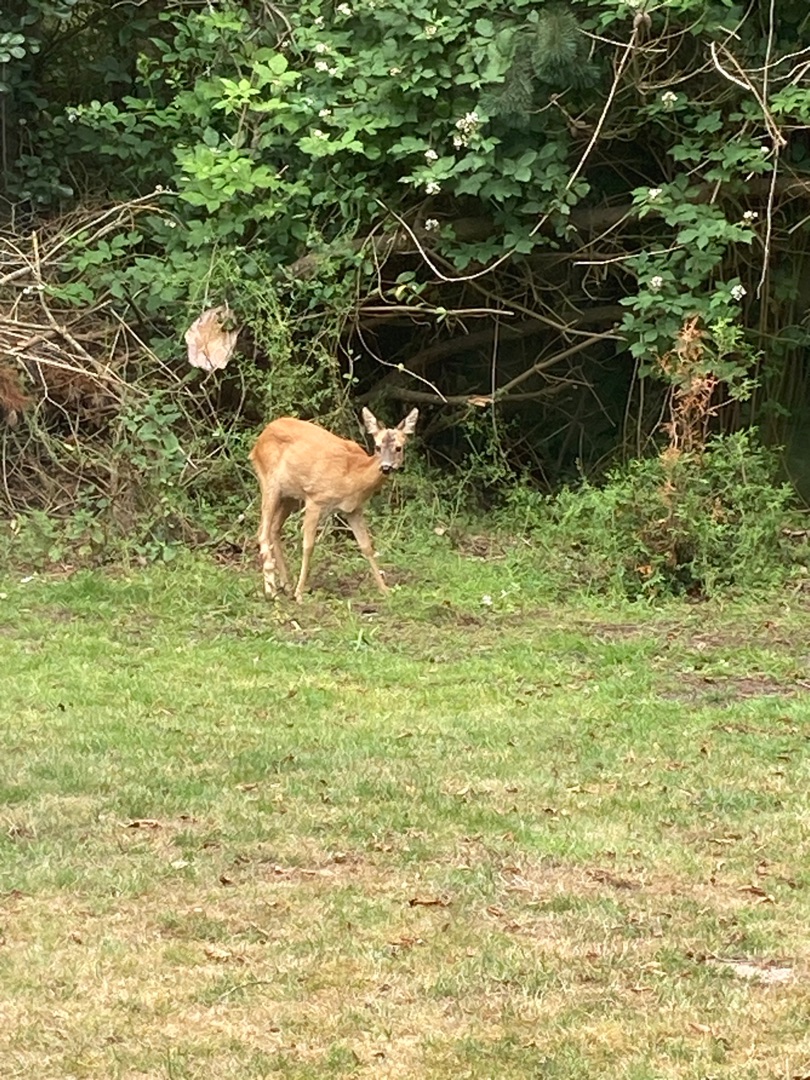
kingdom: Animalia
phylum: Chordata
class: Mammalia
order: Artiodactyla
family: Cervidae
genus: Capreolus
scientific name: Capreolus capreolus
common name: Rådyr
